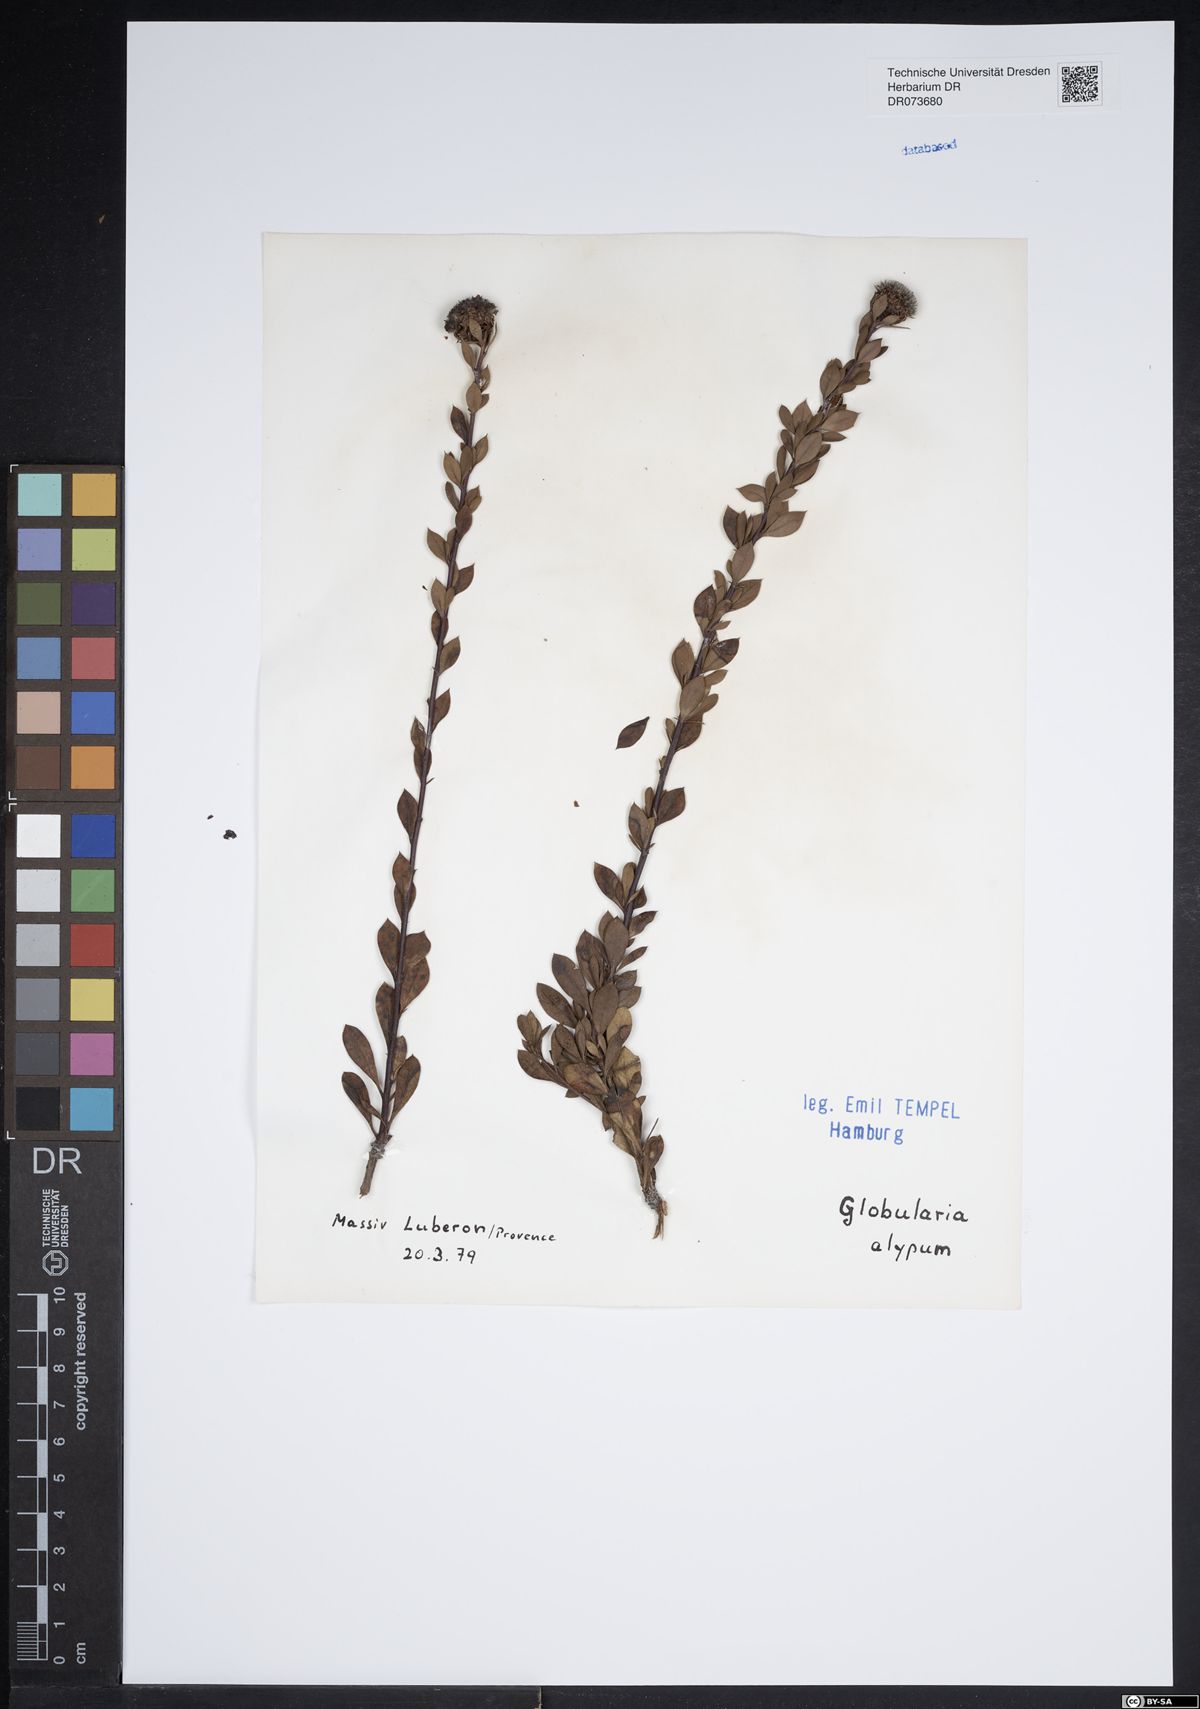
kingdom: Plantae
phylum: Tracheophyta
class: Magnoliopsida
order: Lamiales
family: Plantaginaceae
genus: Globularia
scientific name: Globularia alypum
